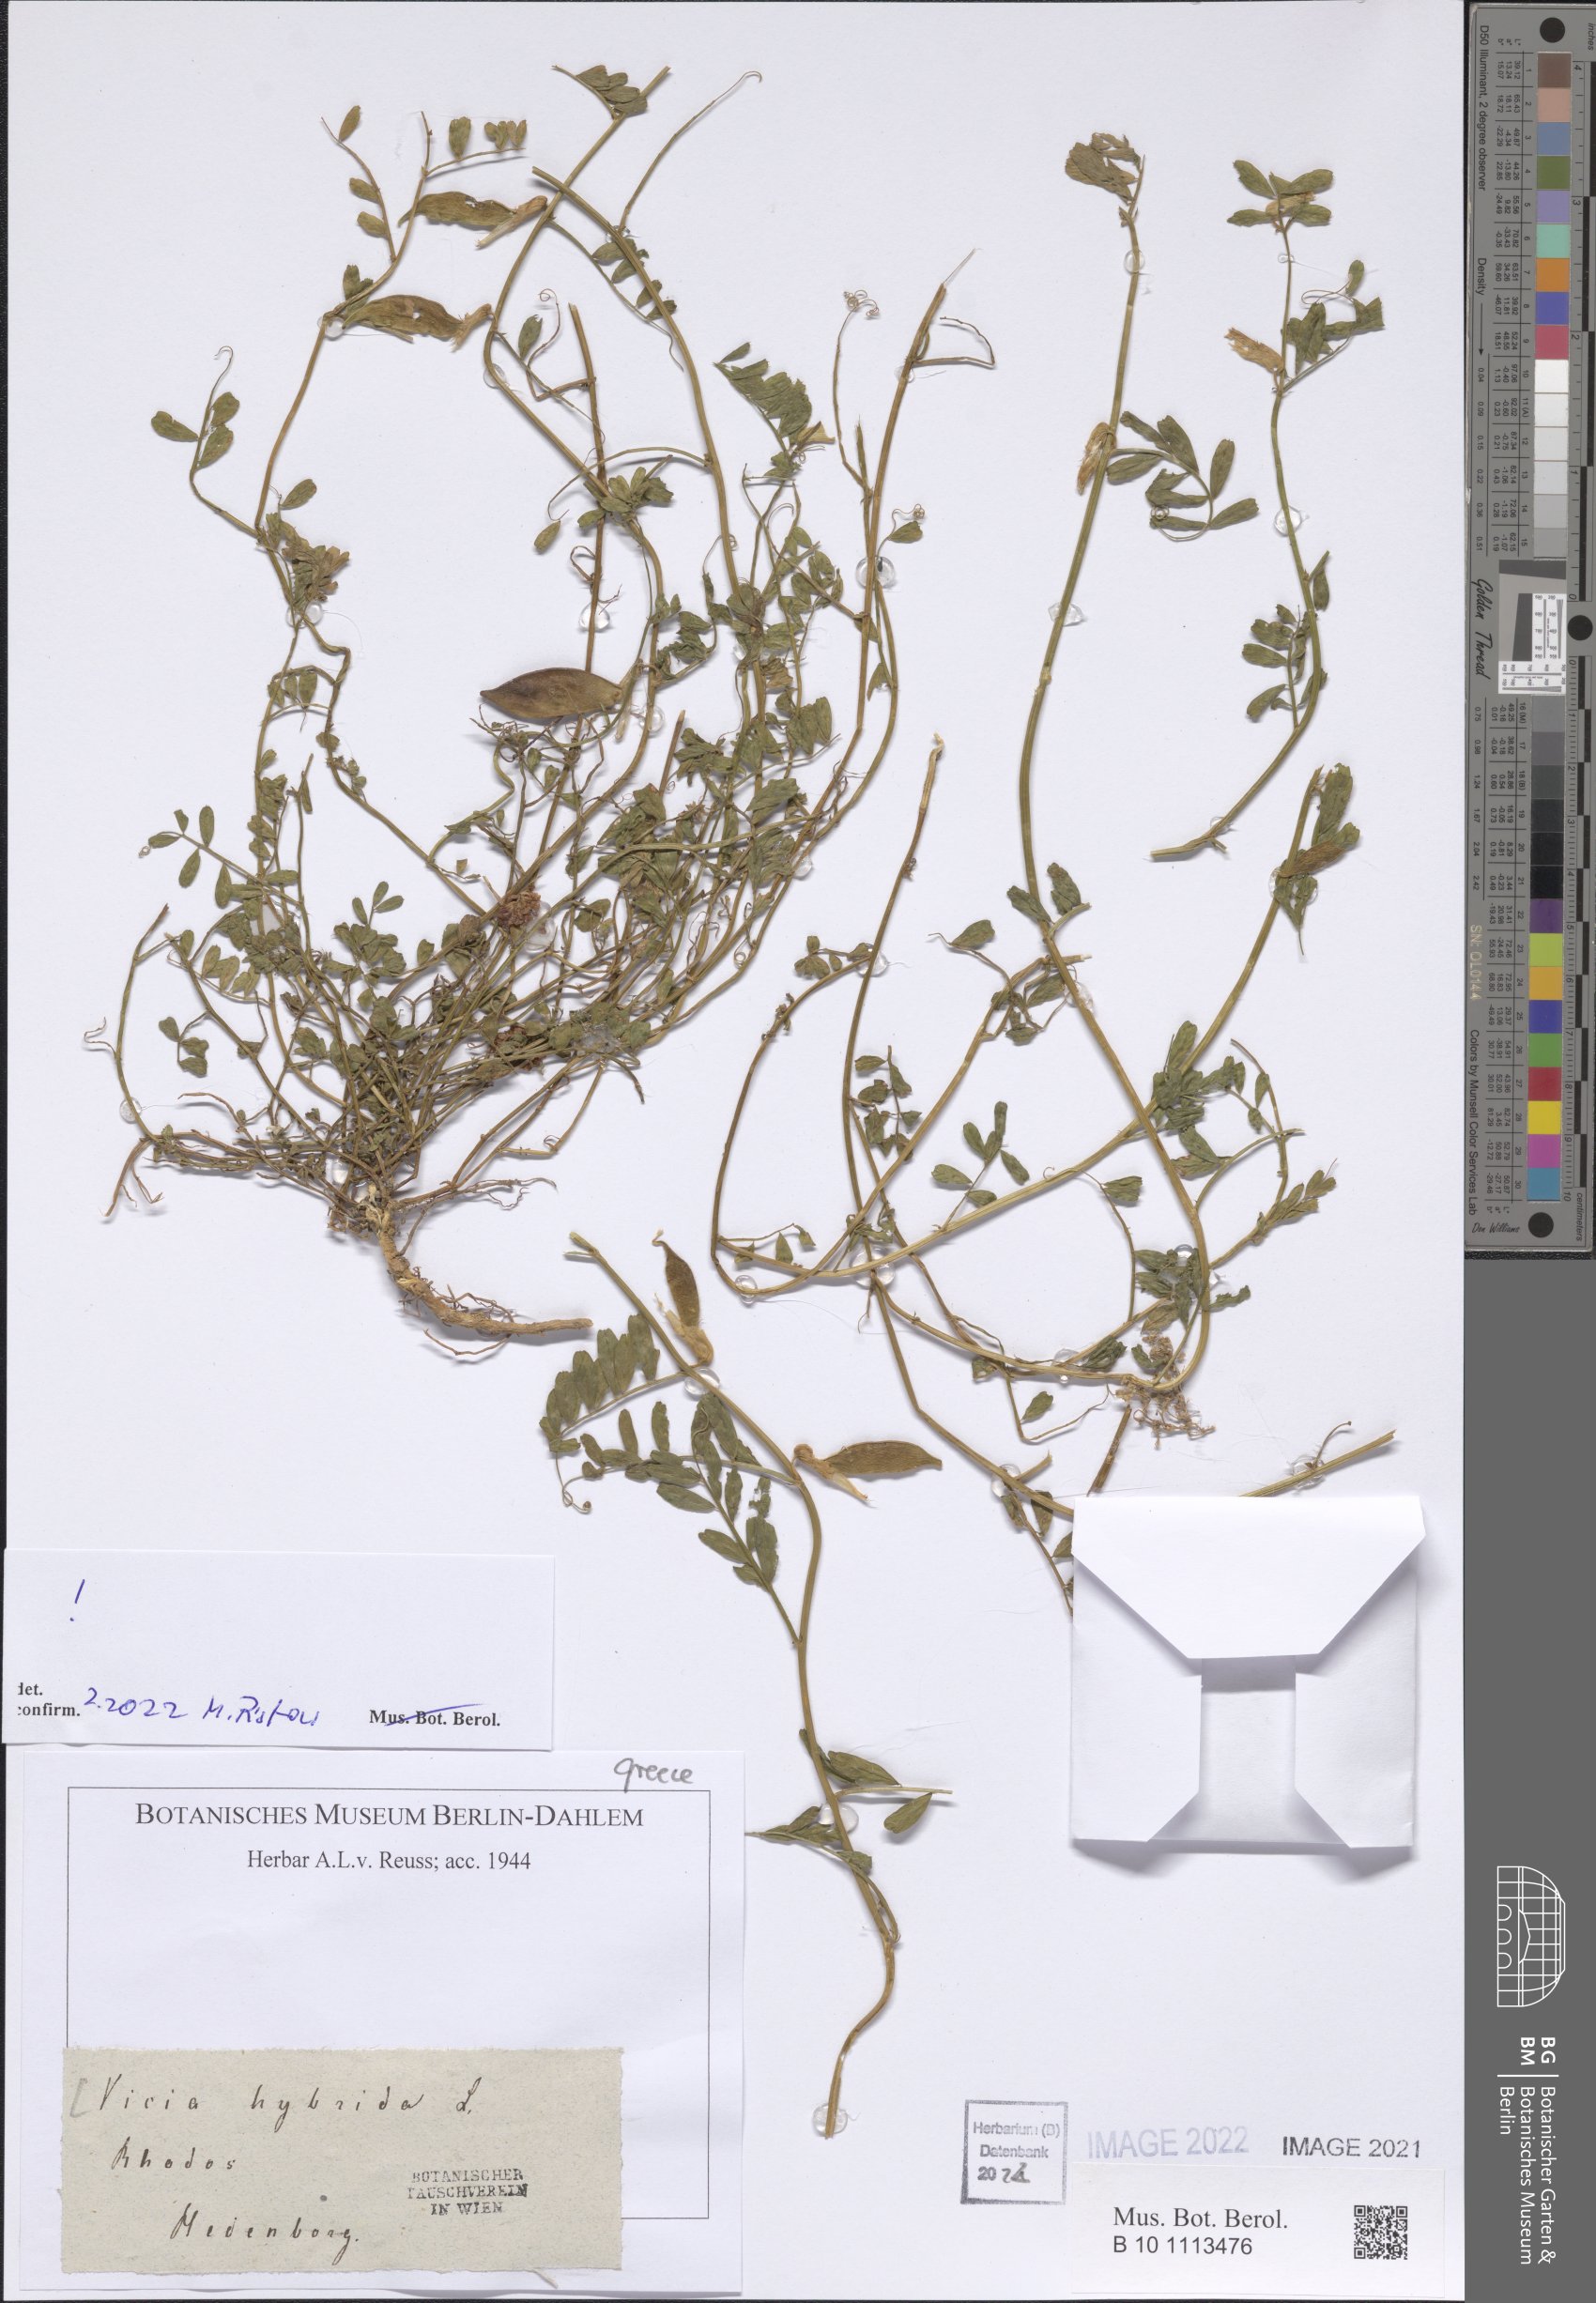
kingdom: Plantae
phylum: Tracheophyta
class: Magnoliopsida
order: Fabales
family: Fabaceae
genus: Vicia
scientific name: Vicia hybrida
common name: Hairy yellow vetch
